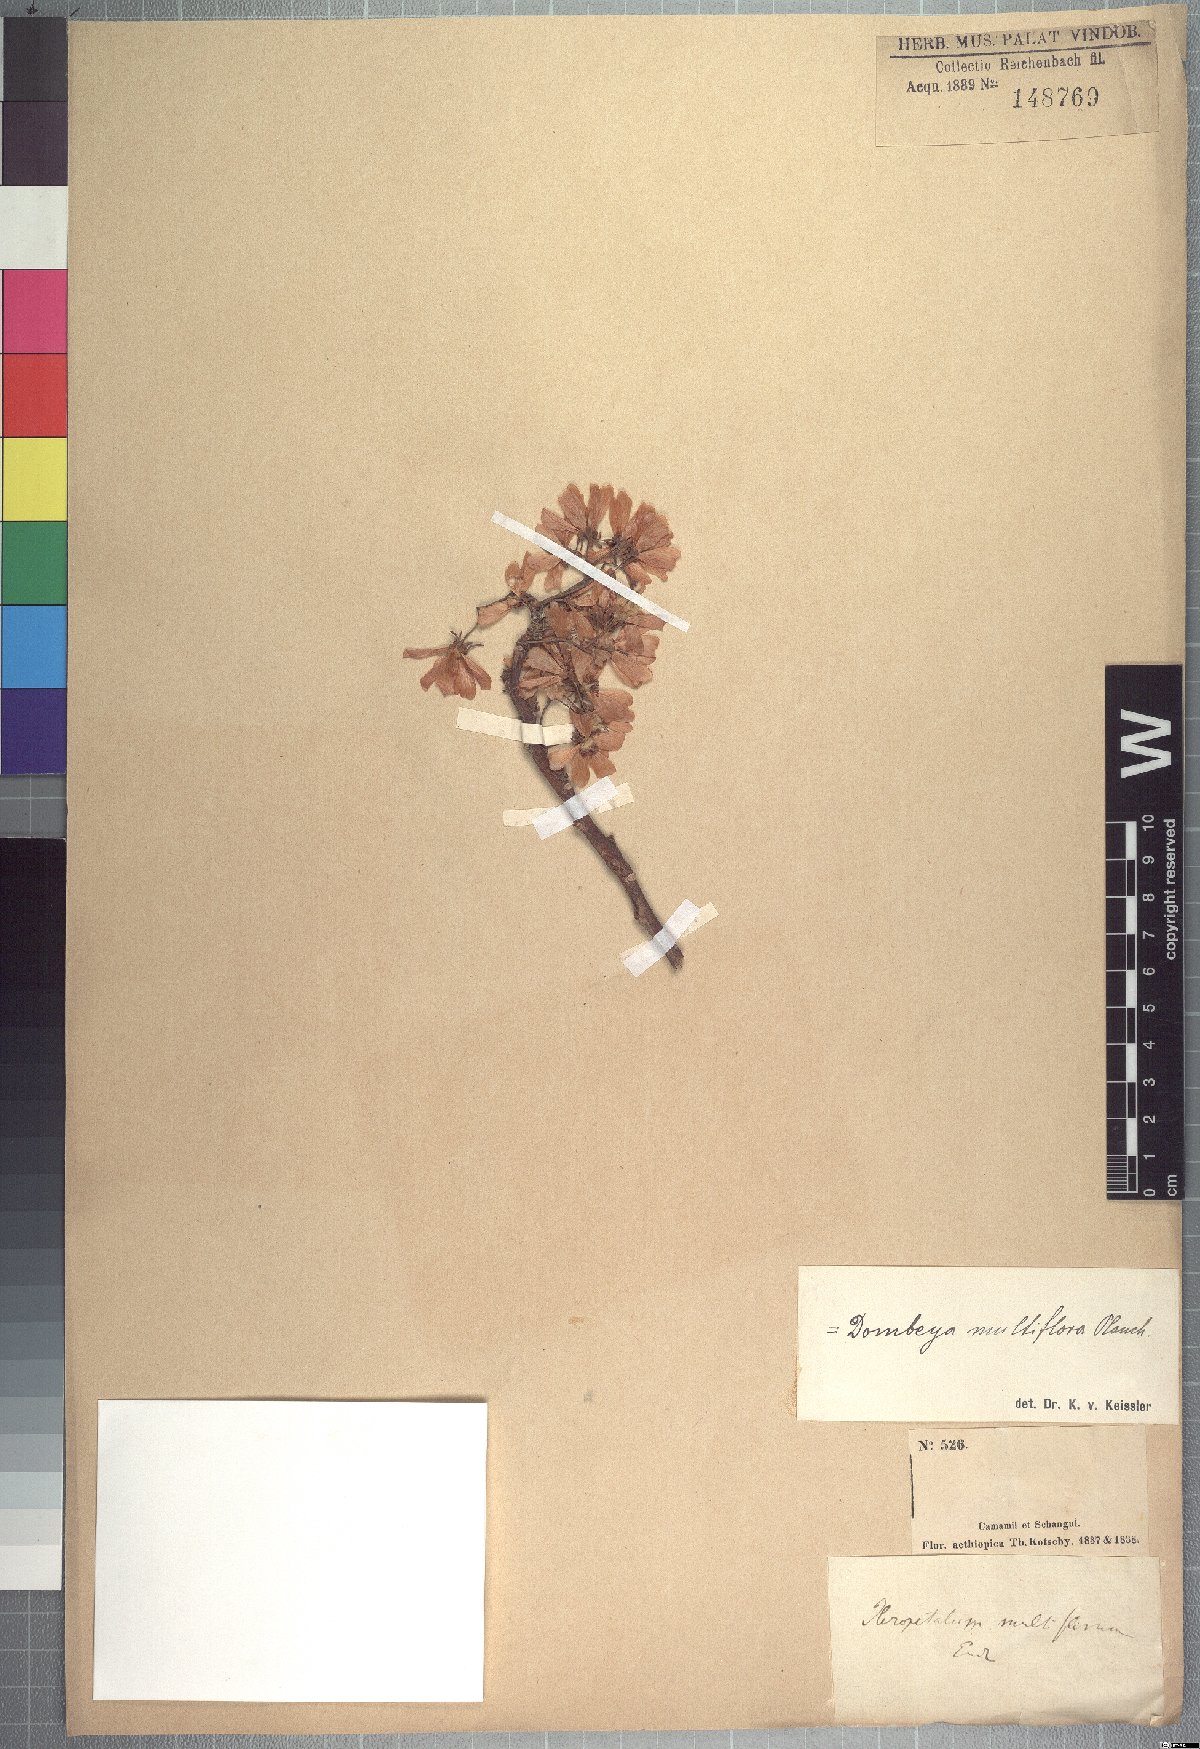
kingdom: Plantae
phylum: Tracheophyta
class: Magnoliopsida
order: Malvales
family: Malvaceae
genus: Dombeya
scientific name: Dombeya quinqueseta
